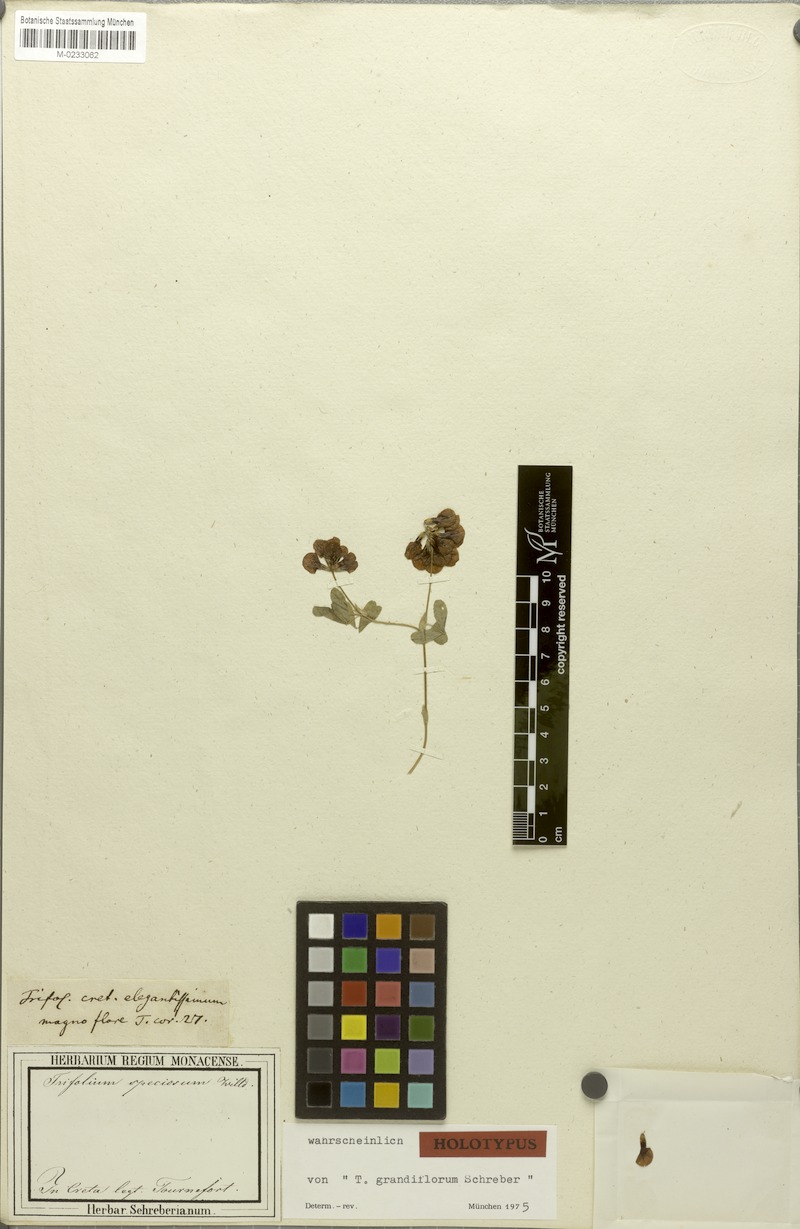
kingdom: Plantae
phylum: Tracheophyta
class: Magnoliopsida
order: Fabales
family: Fabaceae
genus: Trifolium
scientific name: Trifolium grandiflorum
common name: Large-flower hop clover
